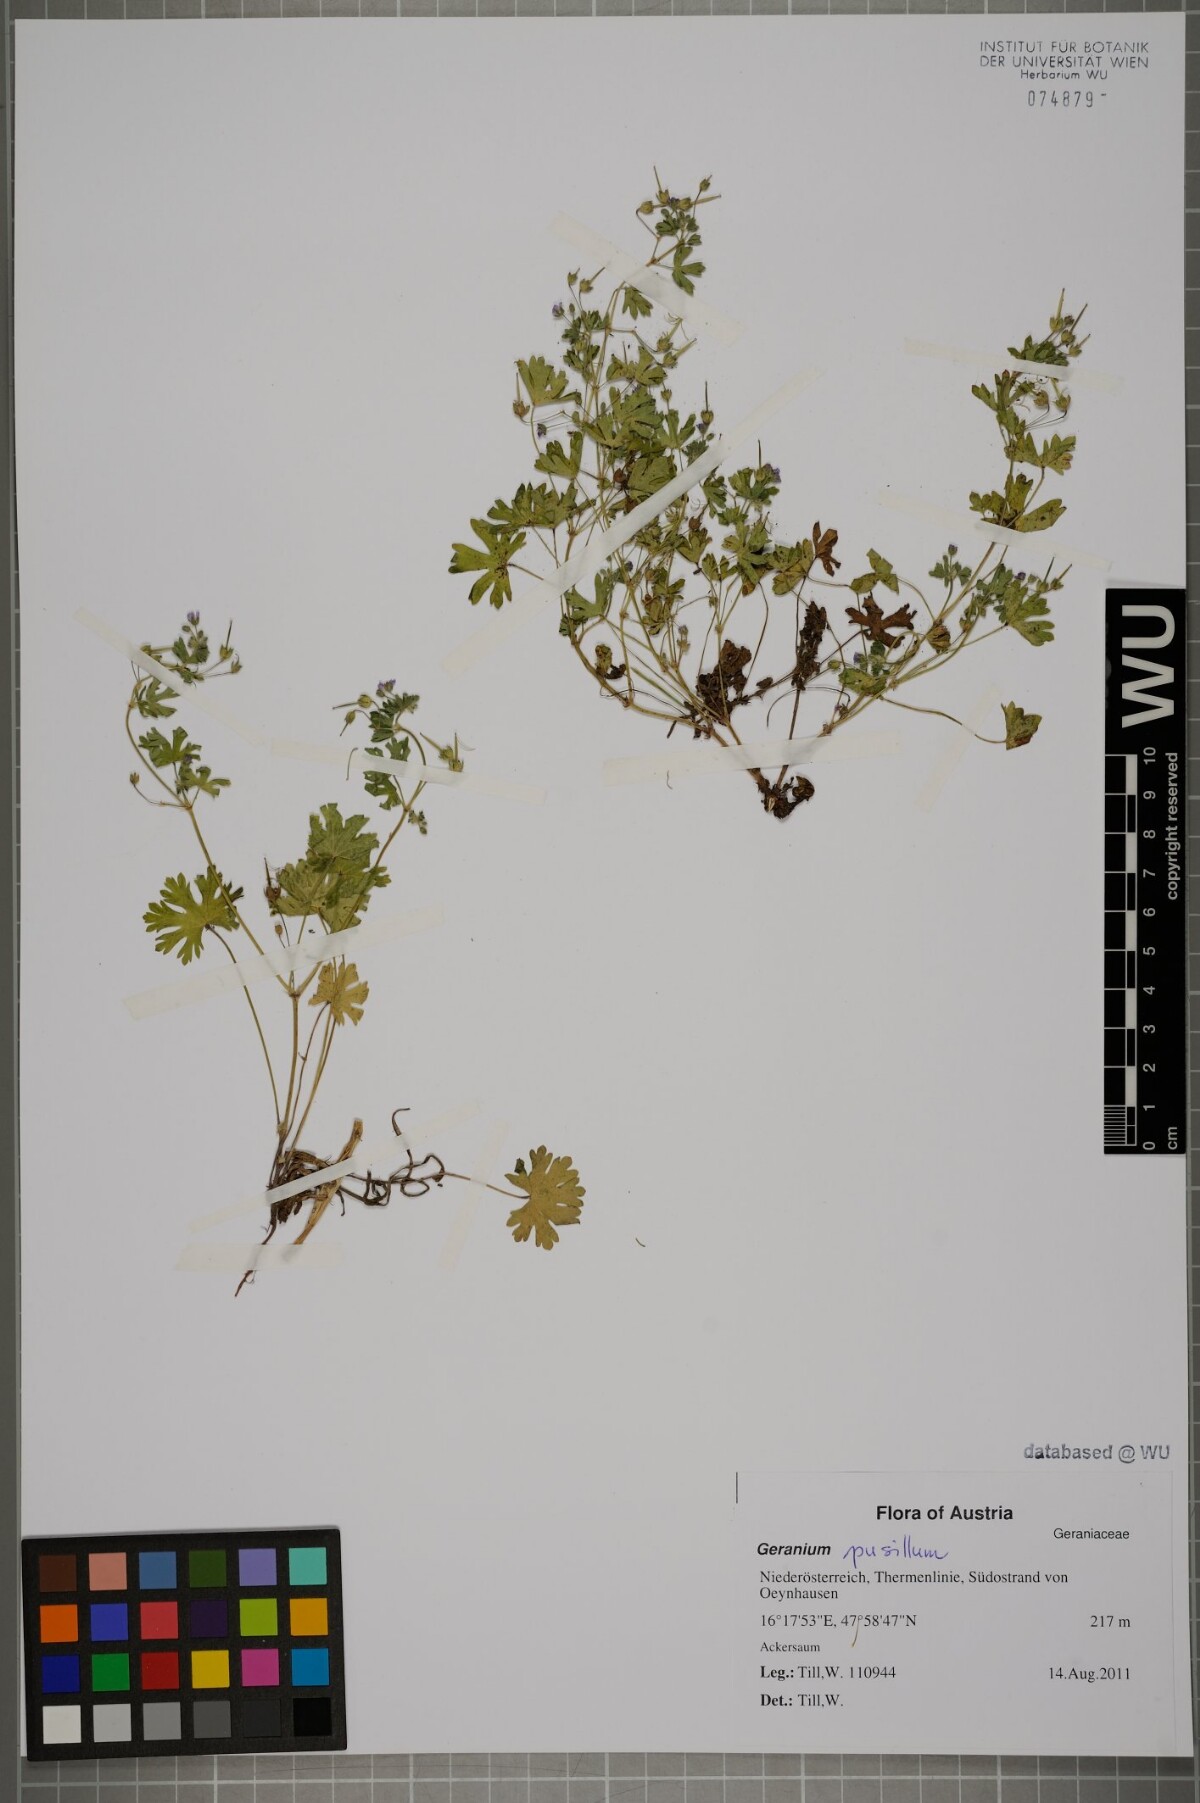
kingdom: Plantae
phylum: Tracheophyta
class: Magnoliopsida
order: Geraniales
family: Geraniaceae
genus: Geranium
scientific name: Geranium pusillum
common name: Small geranium
